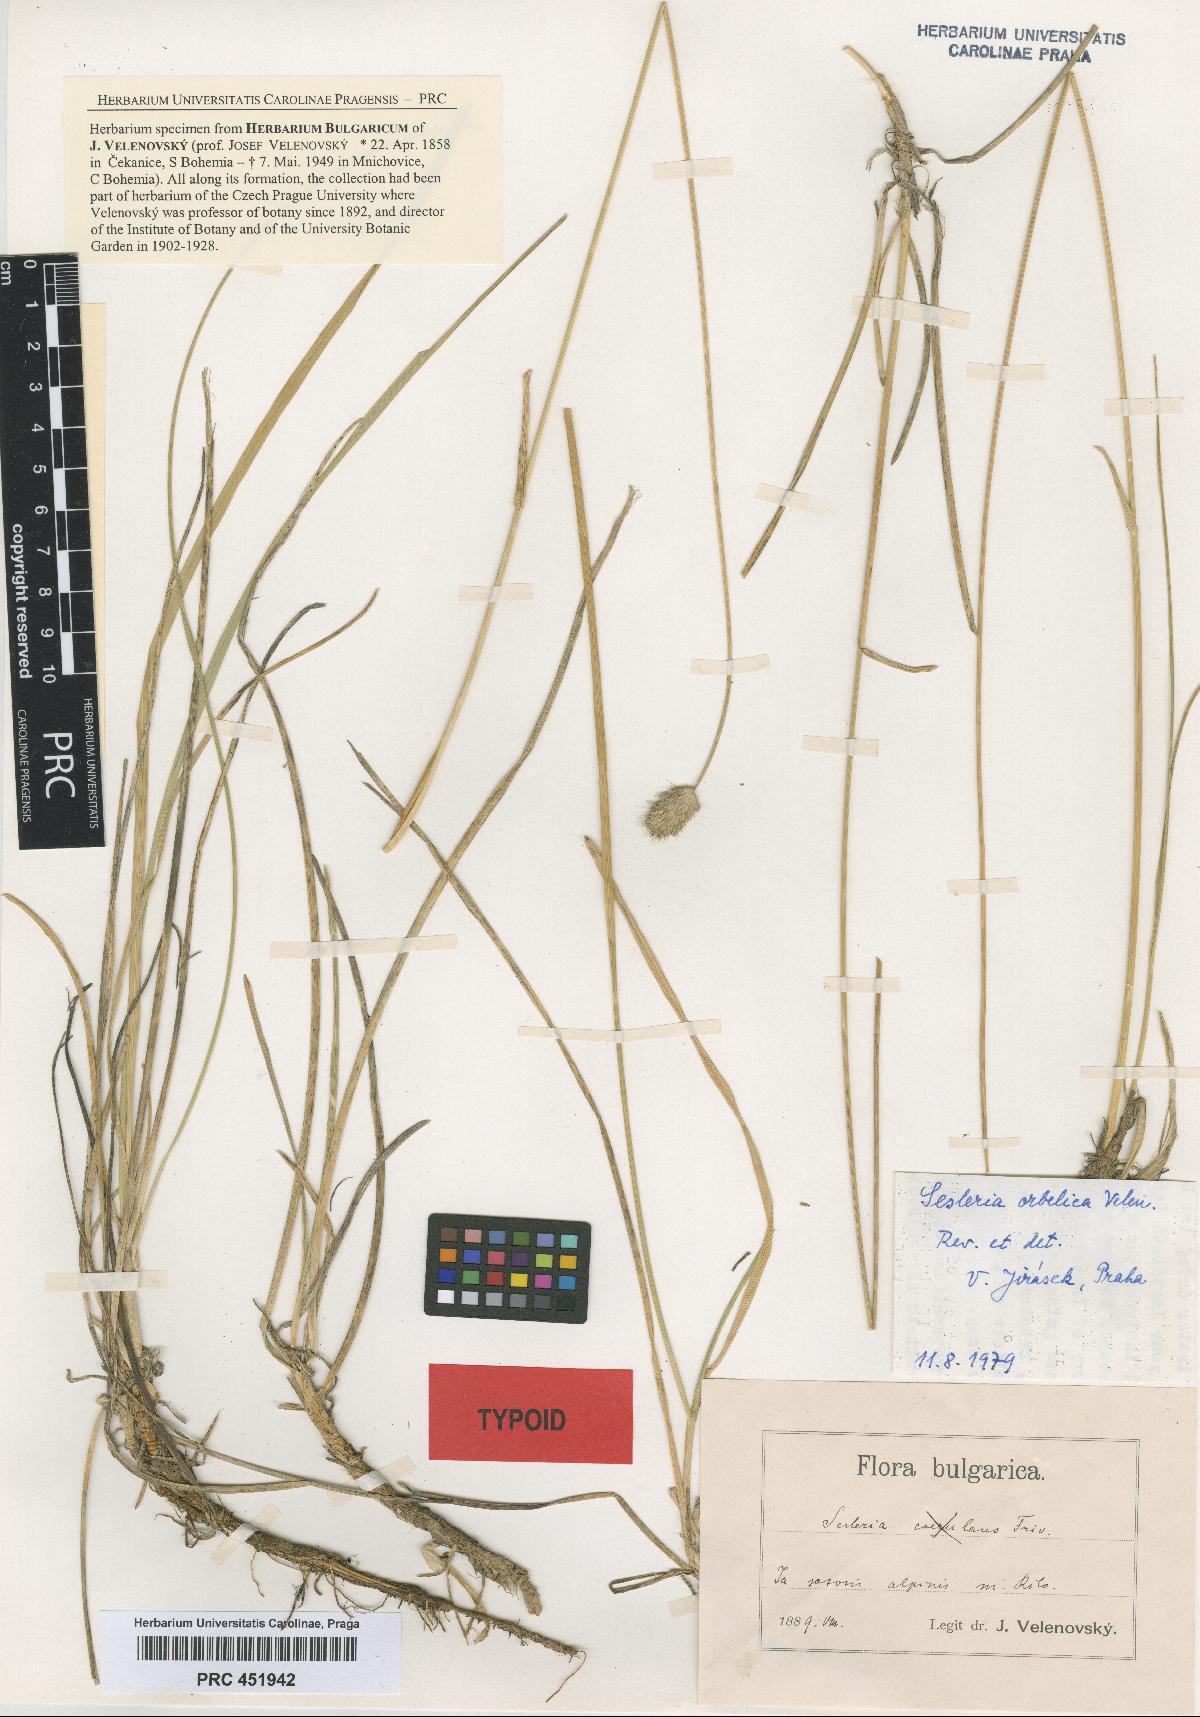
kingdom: Plantae
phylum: Tracheophyta
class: Liliopsida
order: Poales
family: Poaceae
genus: Sesleria
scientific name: Sesleria coerulans
